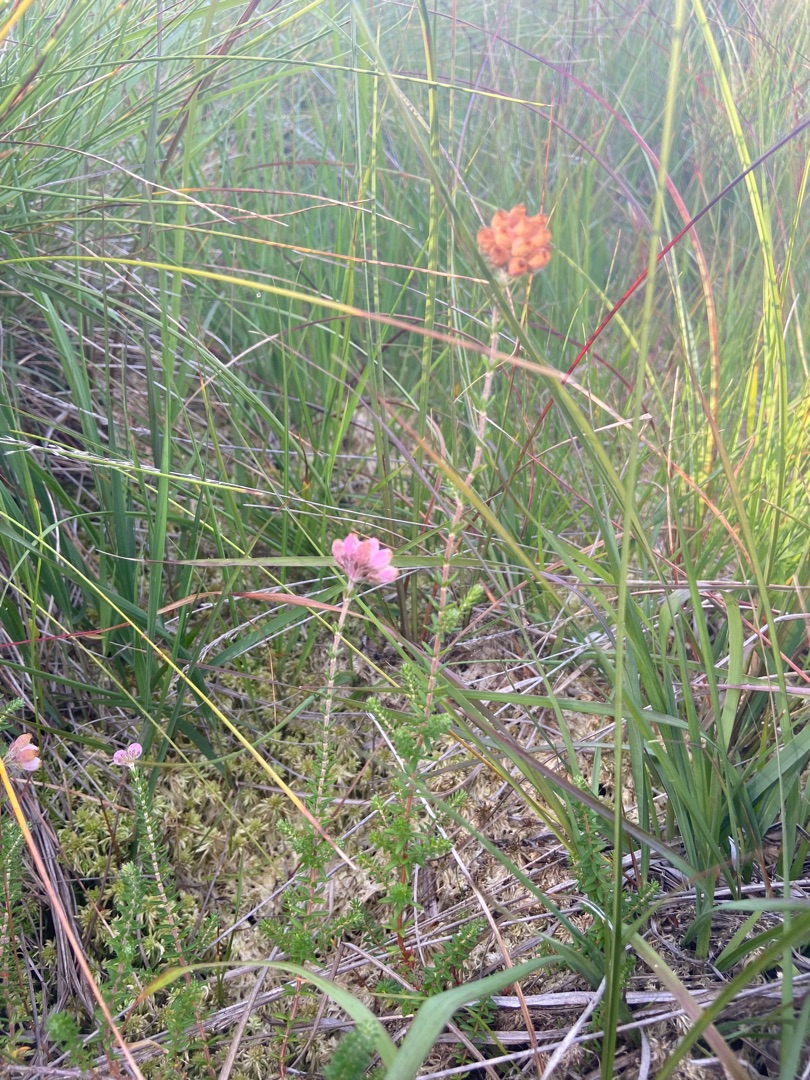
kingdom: Plantae
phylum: Tracheophyta
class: Magnoliopsida
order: Ericales
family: Ericaceae
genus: Erica
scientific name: Erica tetralix
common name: Klokkelyng
